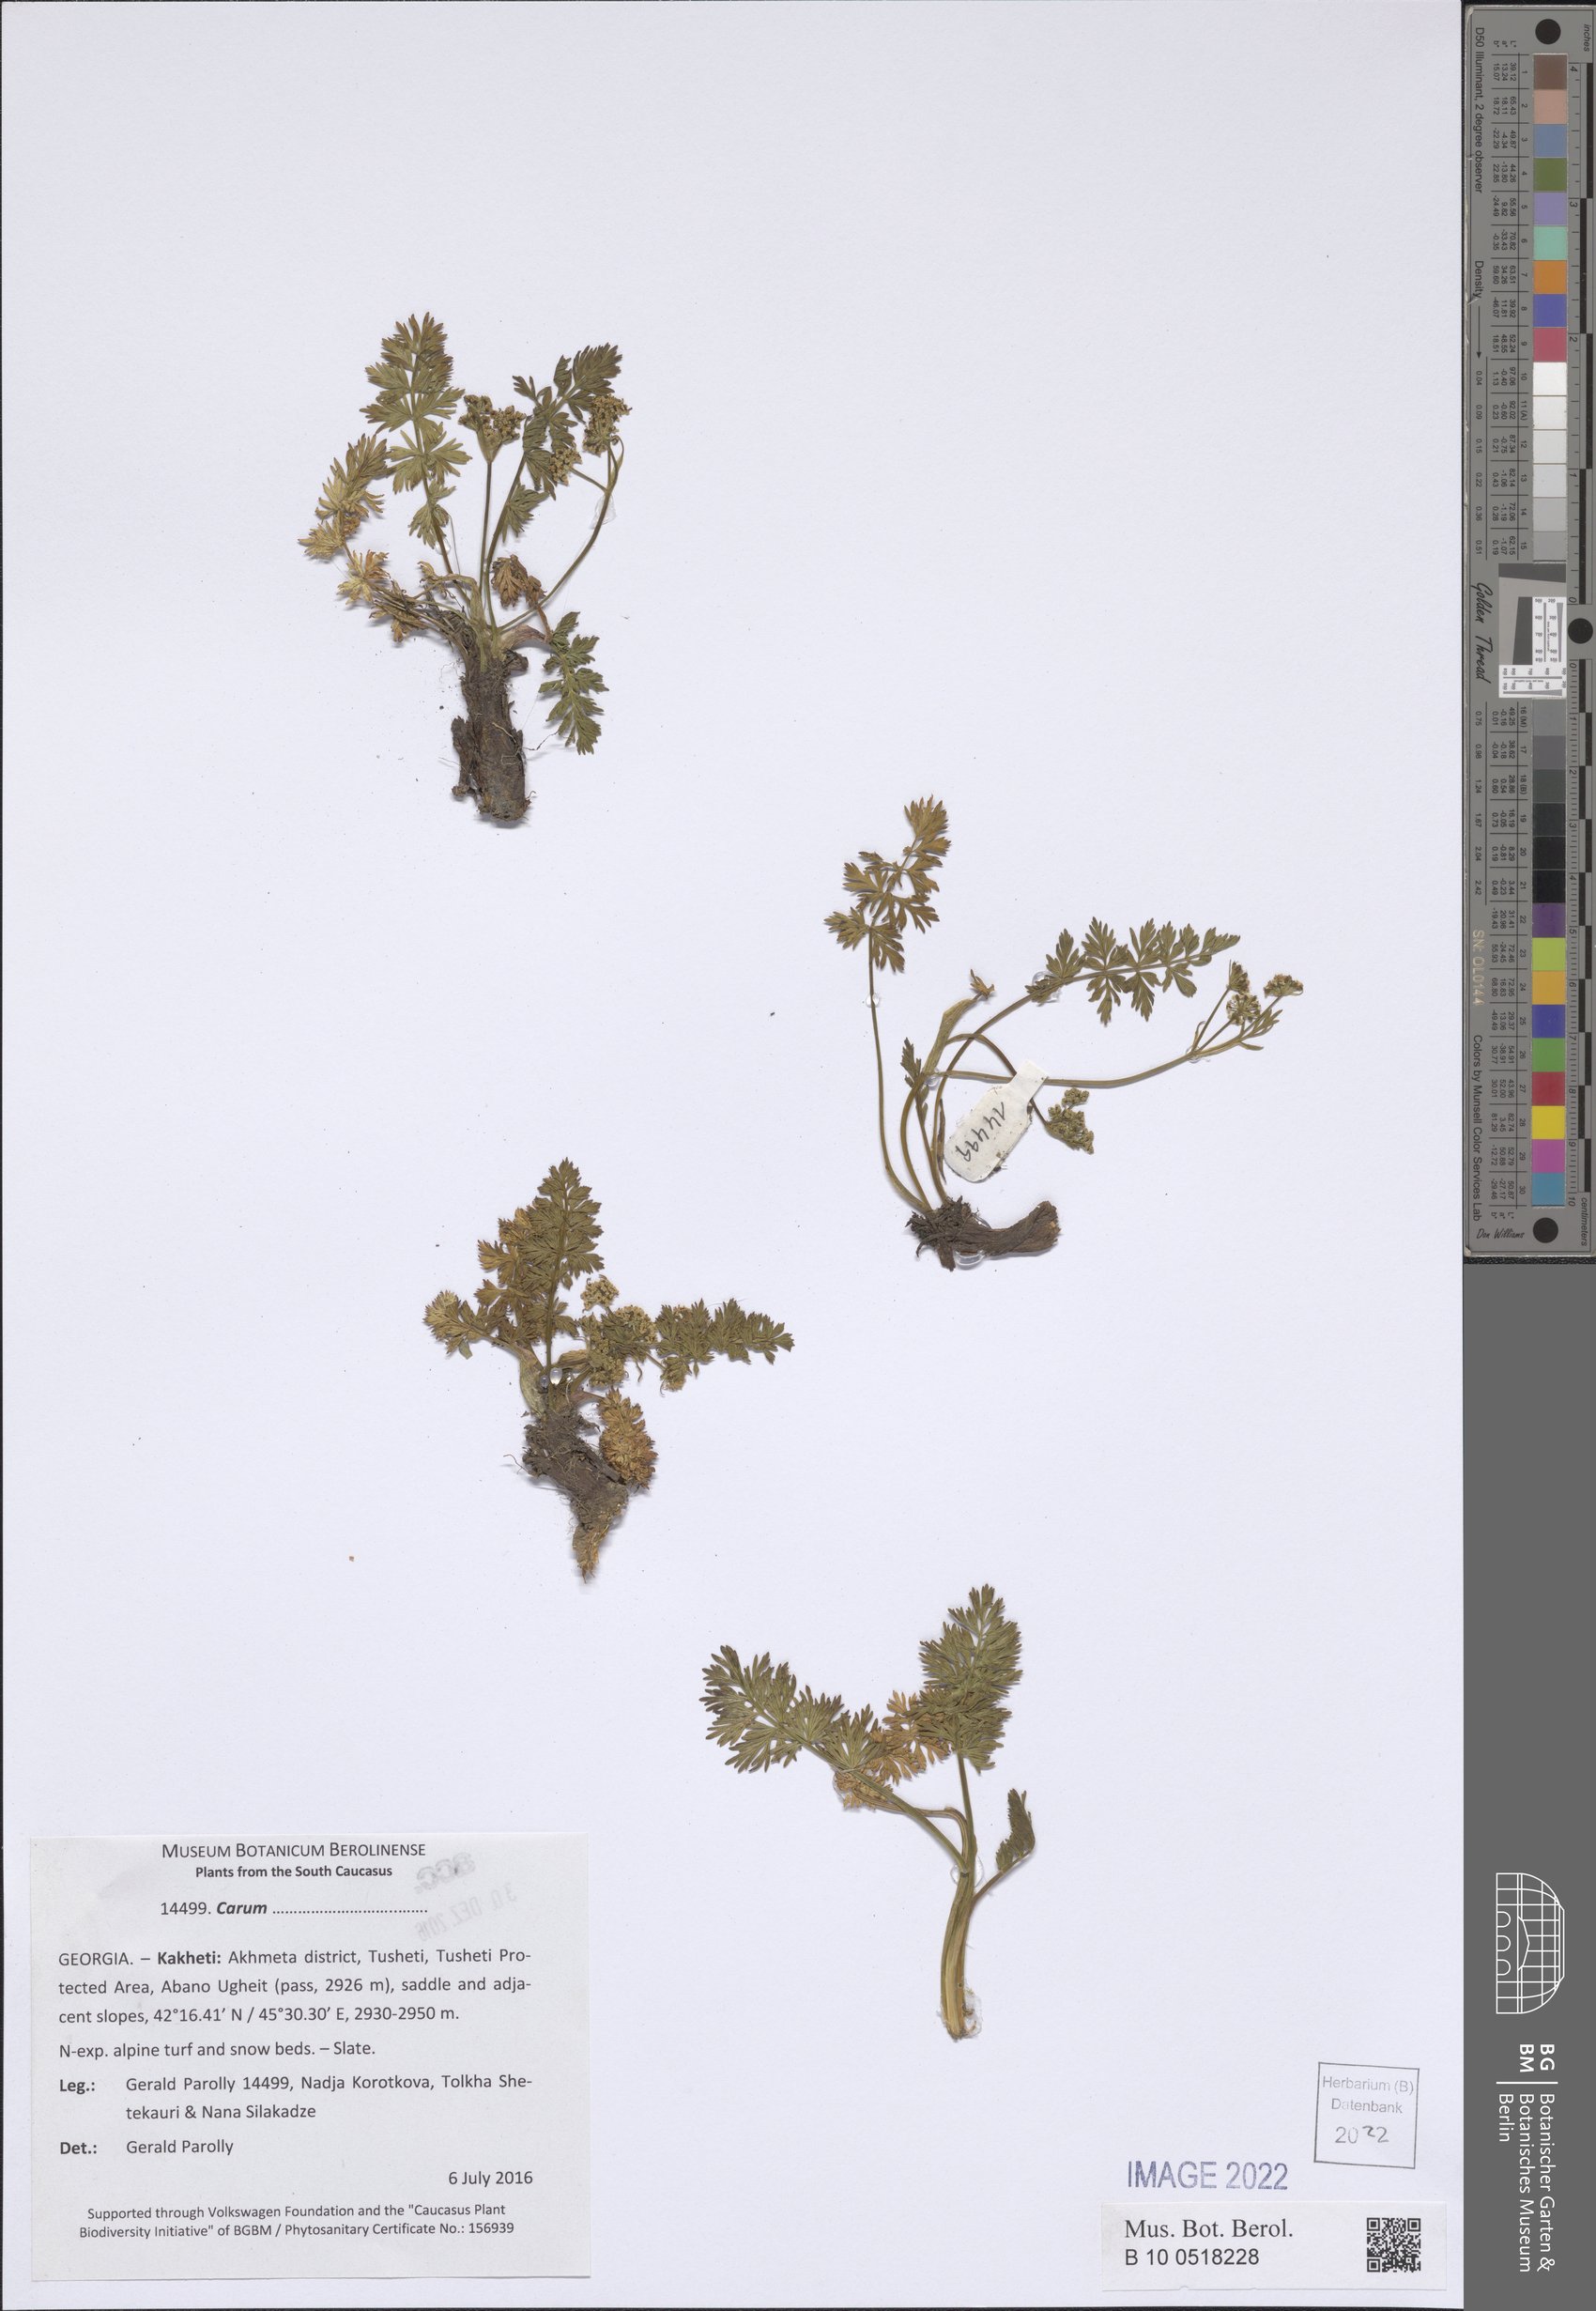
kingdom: Plantae
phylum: Tracheophyta
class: Magnoliopsida
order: Apiales
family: Apiaceae
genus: Carum
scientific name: Carum
